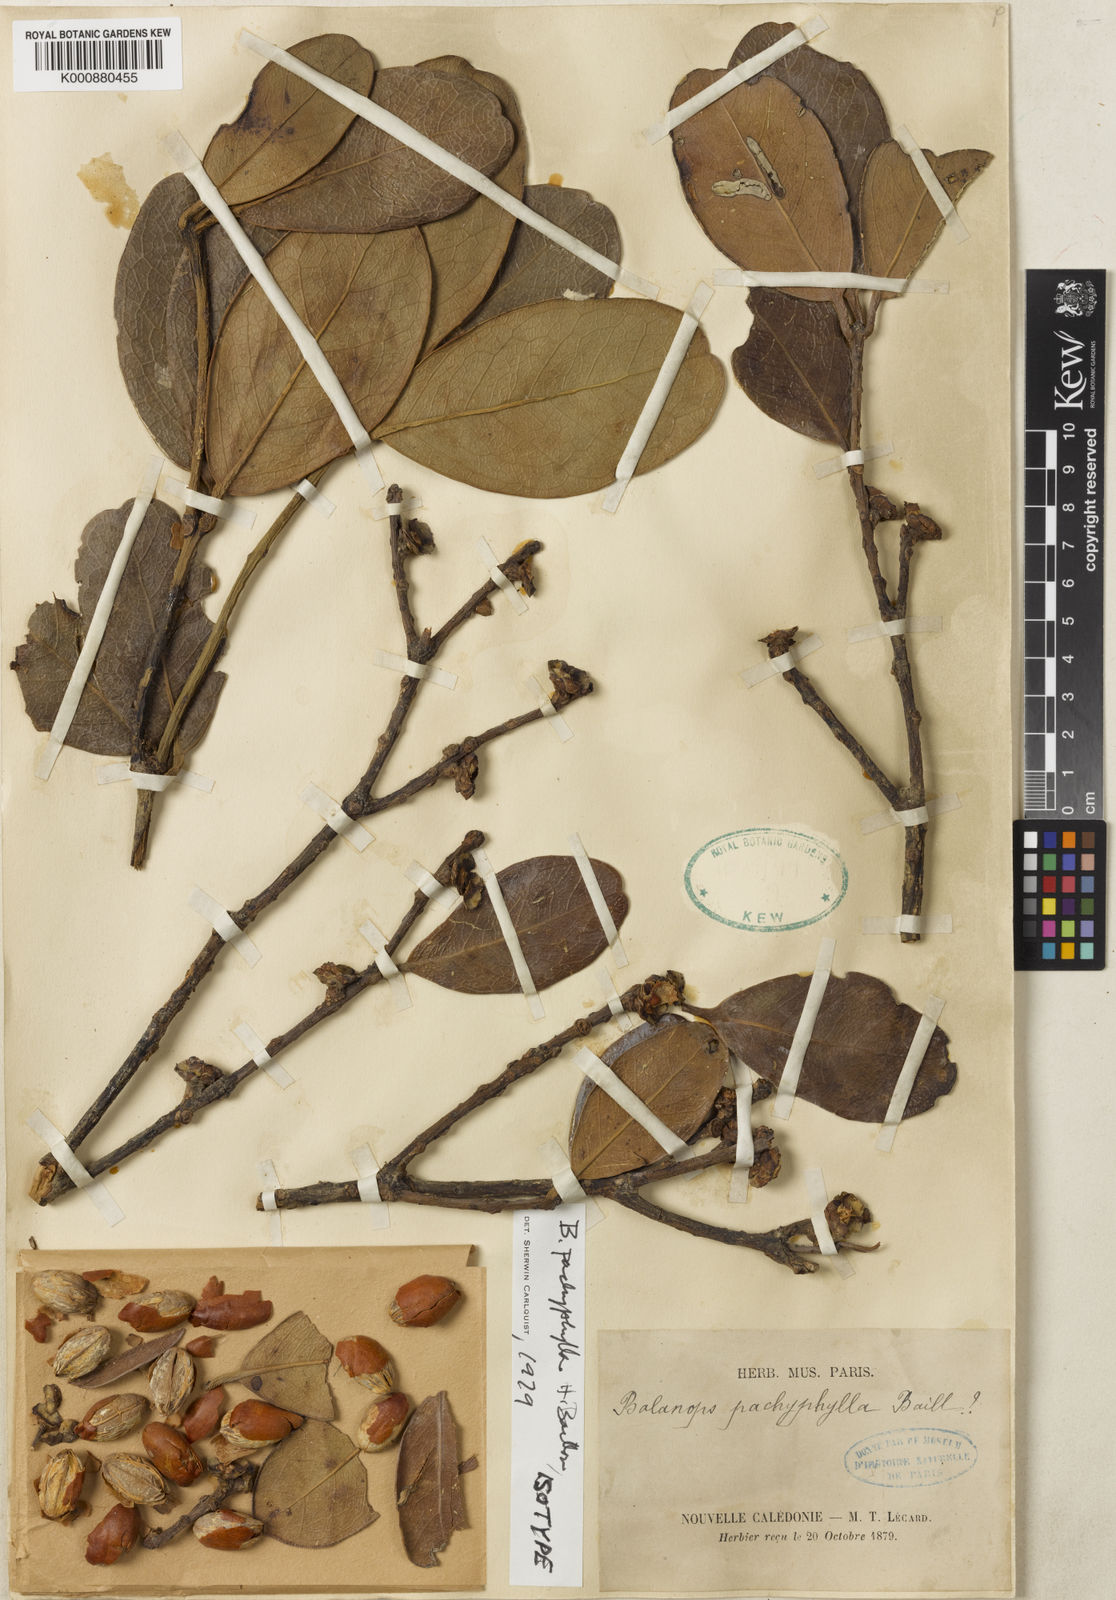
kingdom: Plantae
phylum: Tracheophyta
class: Magnoliopsida
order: Malpighiales
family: Balanopaceae
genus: Balanops
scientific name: Balanops pachyphylla
